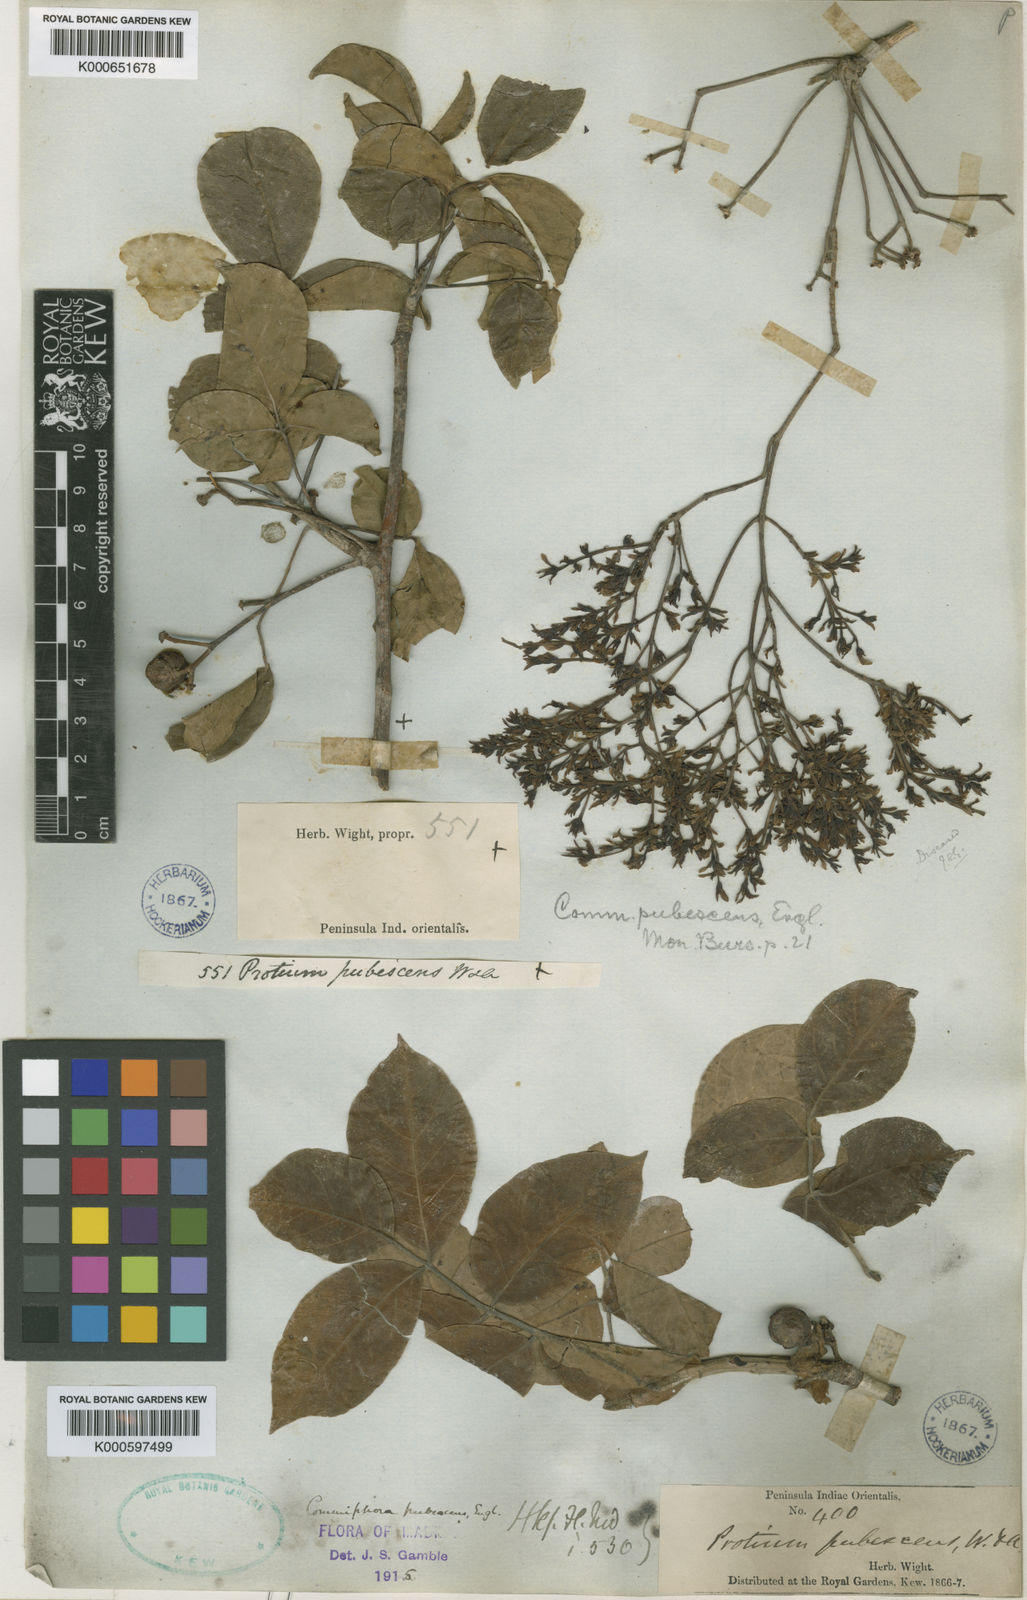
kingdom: Plantae
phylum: Tracheophyta
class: Magnoliopsida
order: Sapindales
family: Burseraceae
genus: Commiphora
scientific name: Commiphora caudata
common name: Hill-mango
